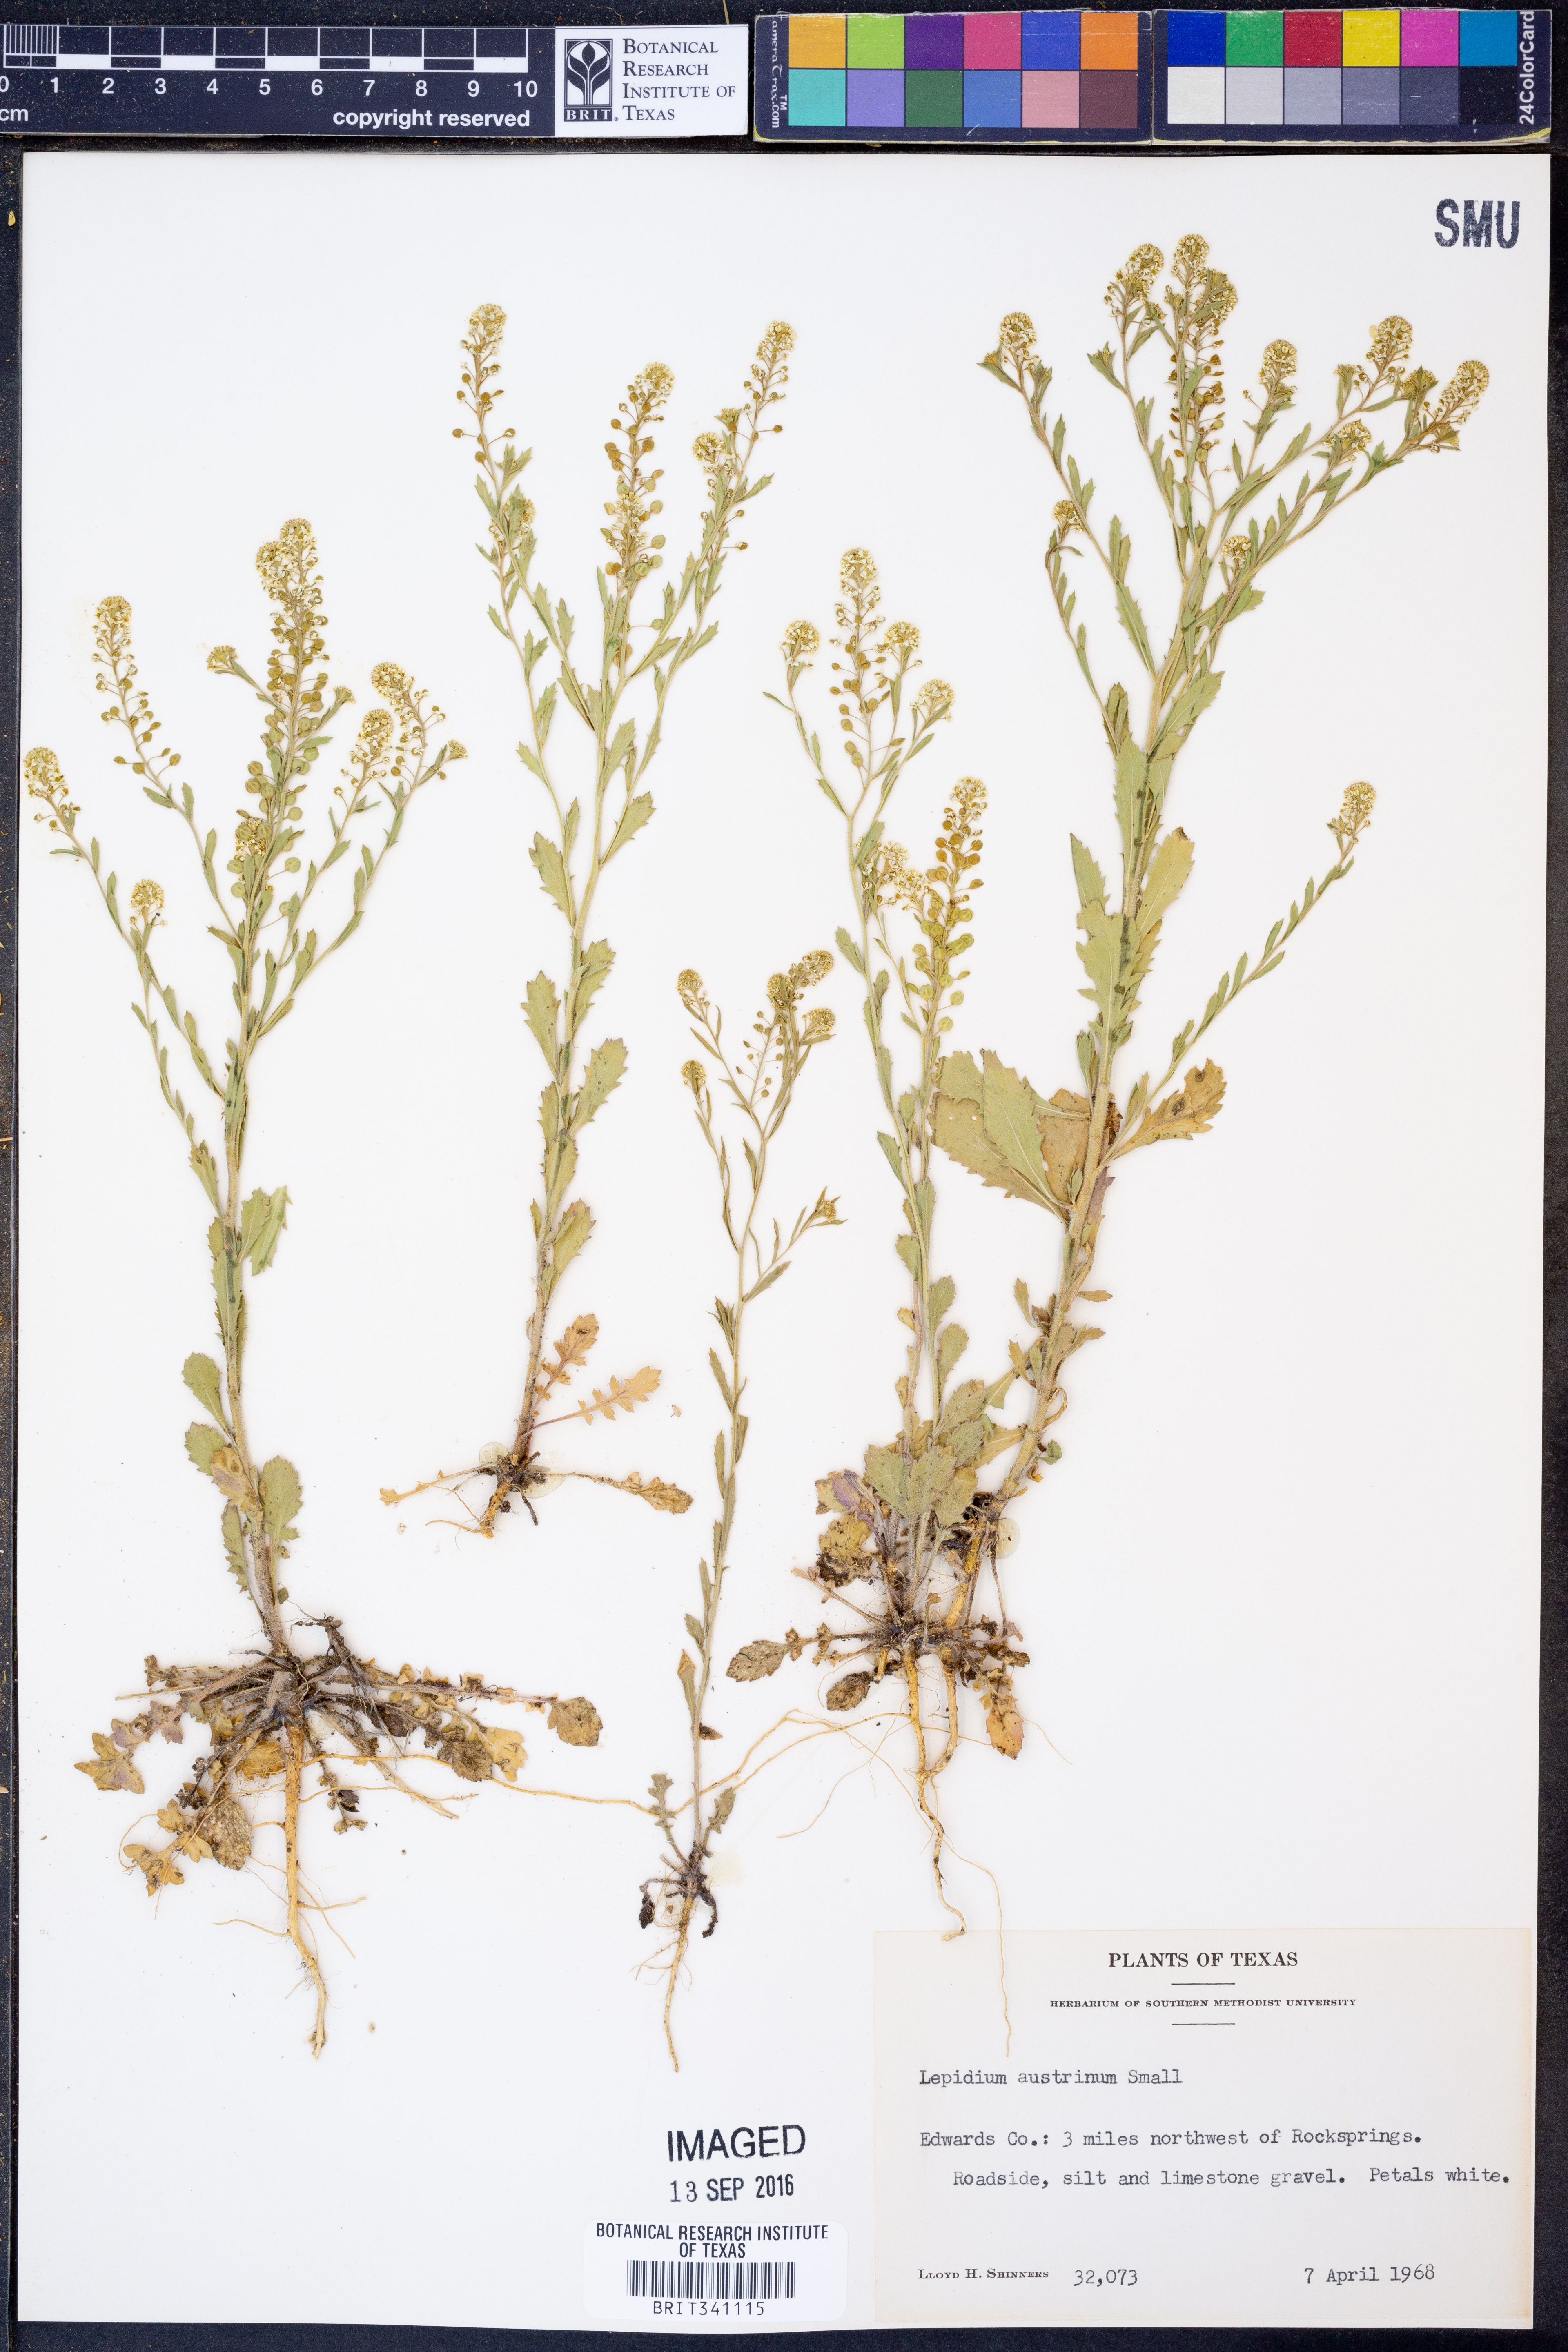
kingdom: Plantae
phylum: Tracheophyta
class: Magnoliopsida
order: Brassicales
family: Brassicaceae
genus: Lepidium
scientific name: Lepidium austrinum
